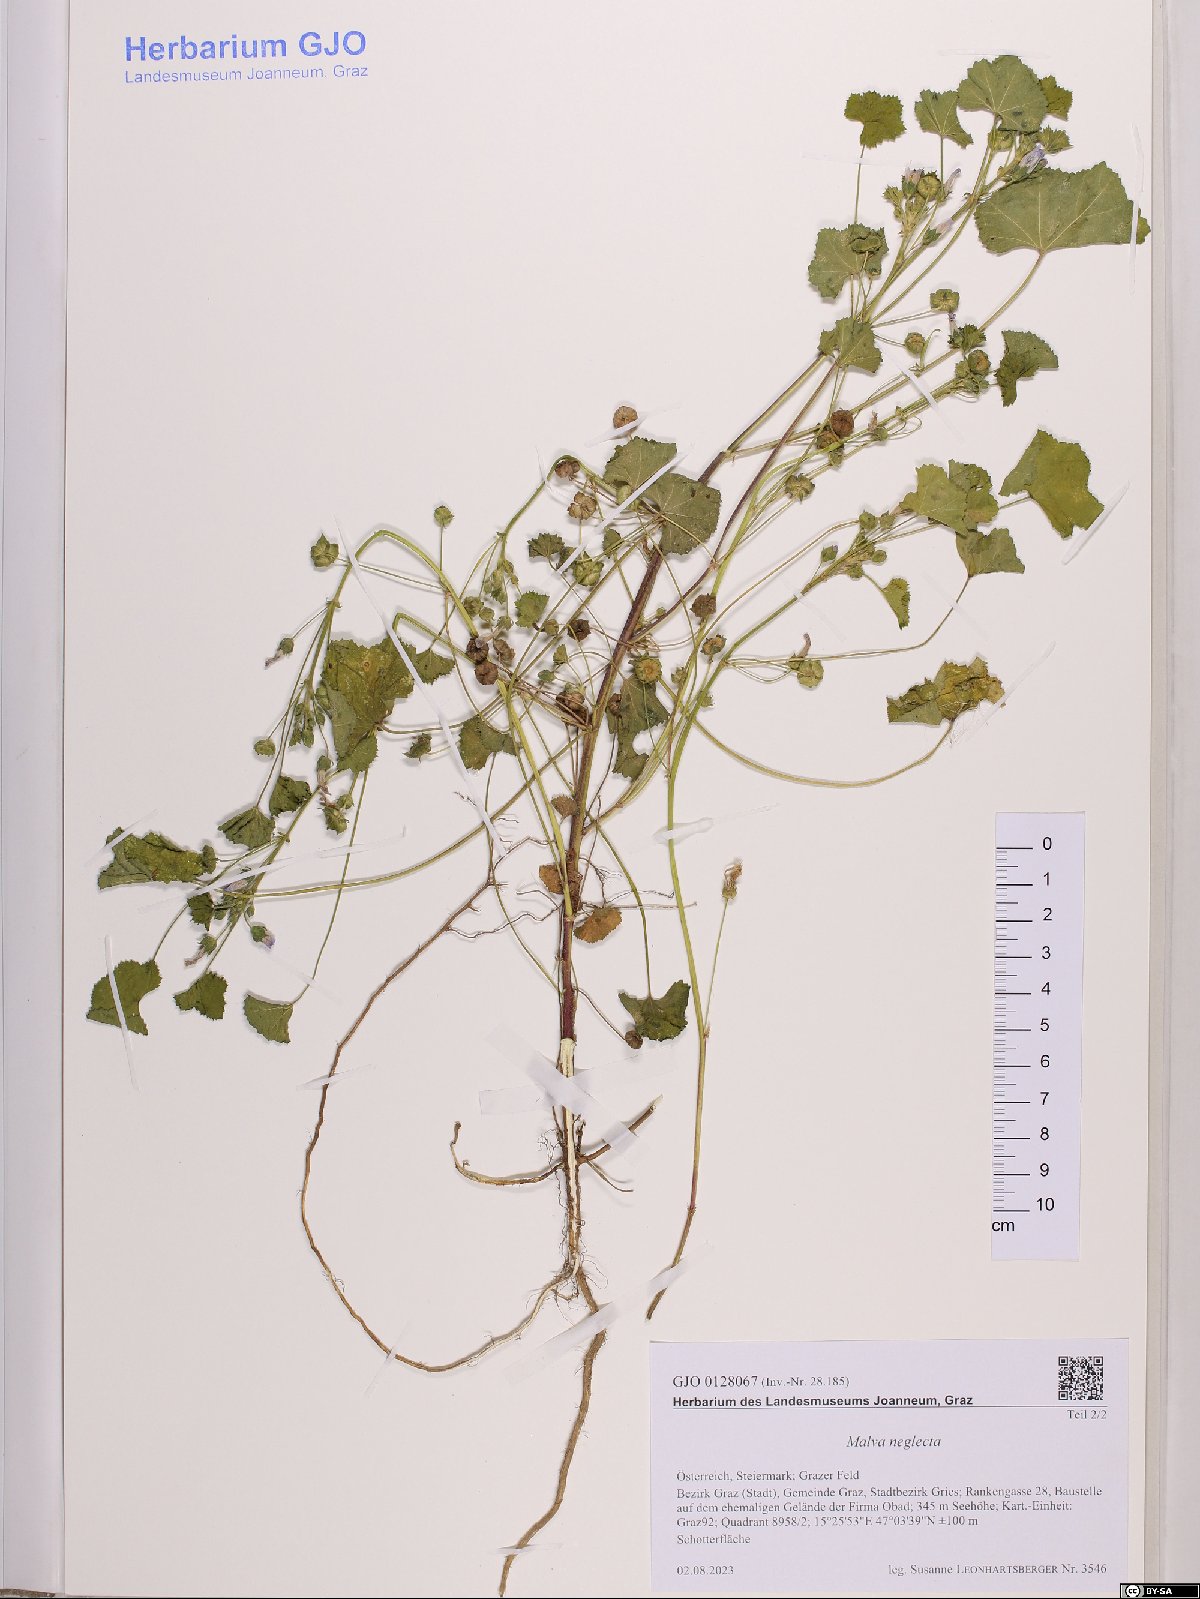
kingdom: Plantae
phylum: Tracheophyta
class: Magnoliopsida
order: Malvales
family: Malvaceae
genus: Malva
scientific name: Malva neglecta
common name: Common mallow
